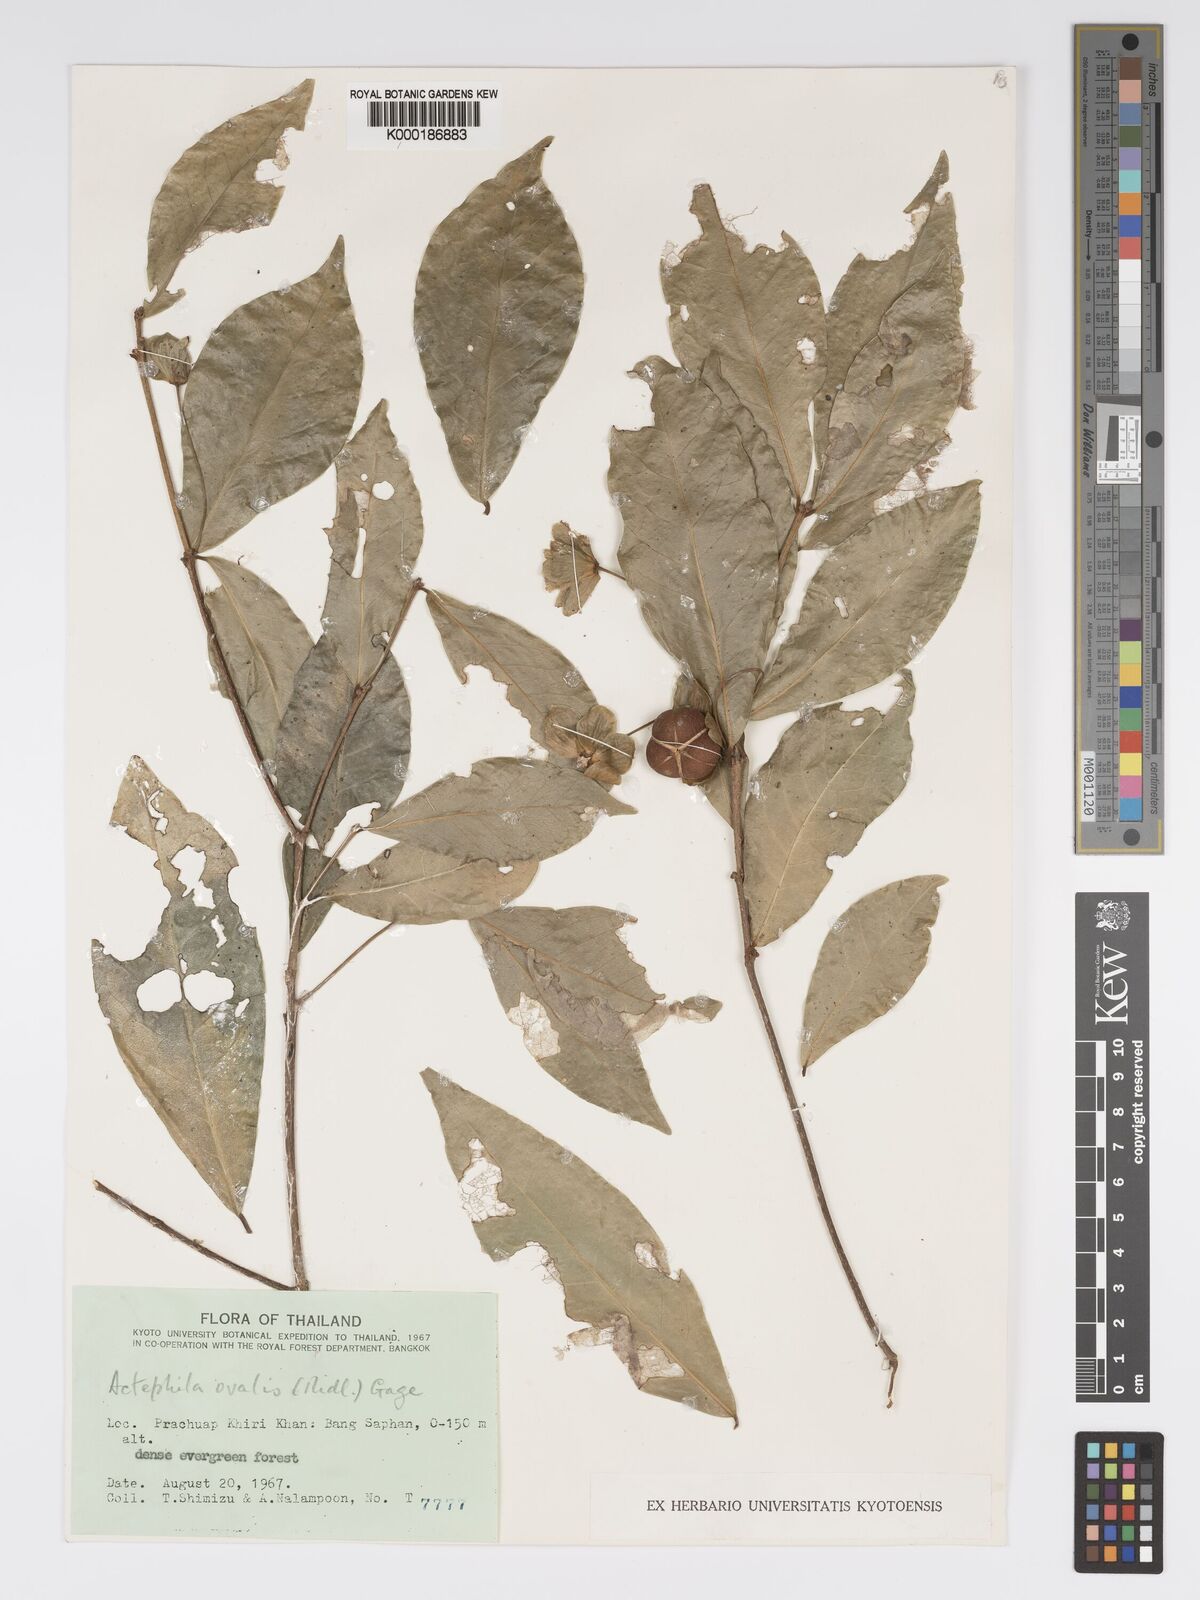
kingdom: Plantae
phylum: Tracheophyta
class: Magnoliopsida
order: Malpighiales
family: Phyllanthaceae
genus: Actephila
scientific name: Actephila ovalis
